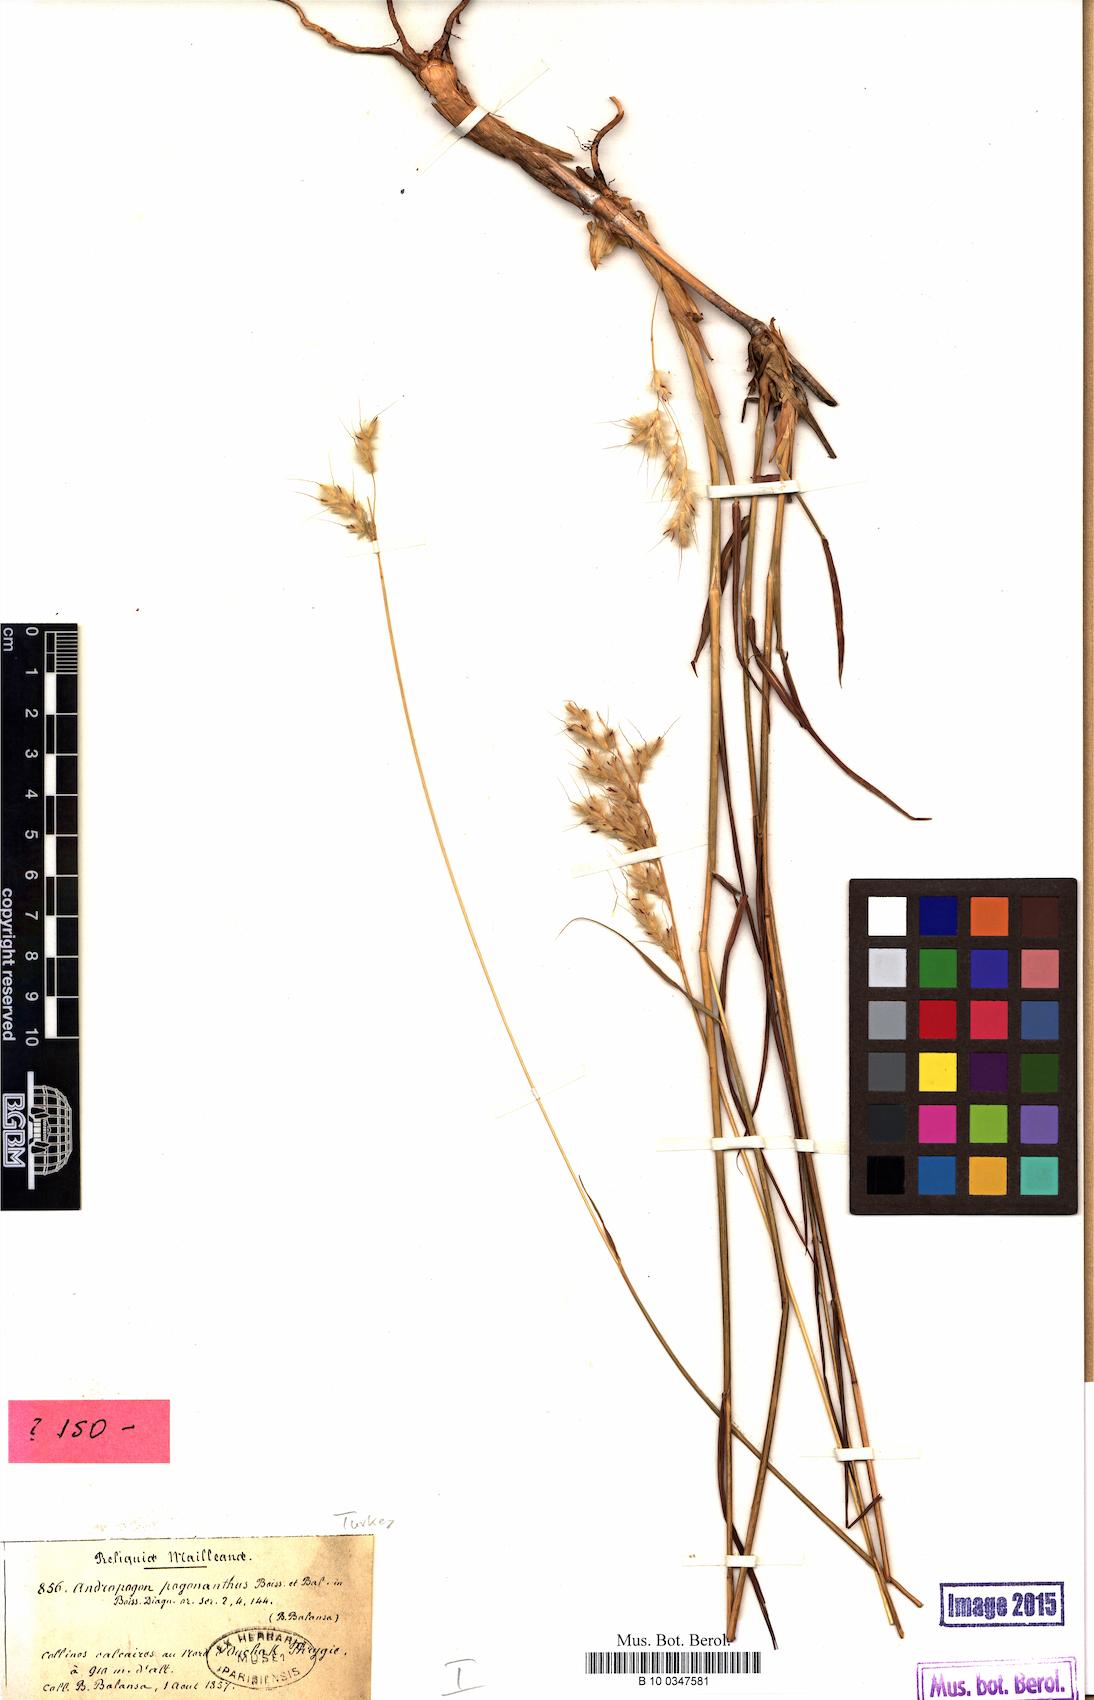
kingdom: Plantae
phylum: Tracheophyta
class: Liliopsida
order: Poales
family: Poaceae
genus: Spodiopogon
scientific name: Spodiopogon pogonanthus
